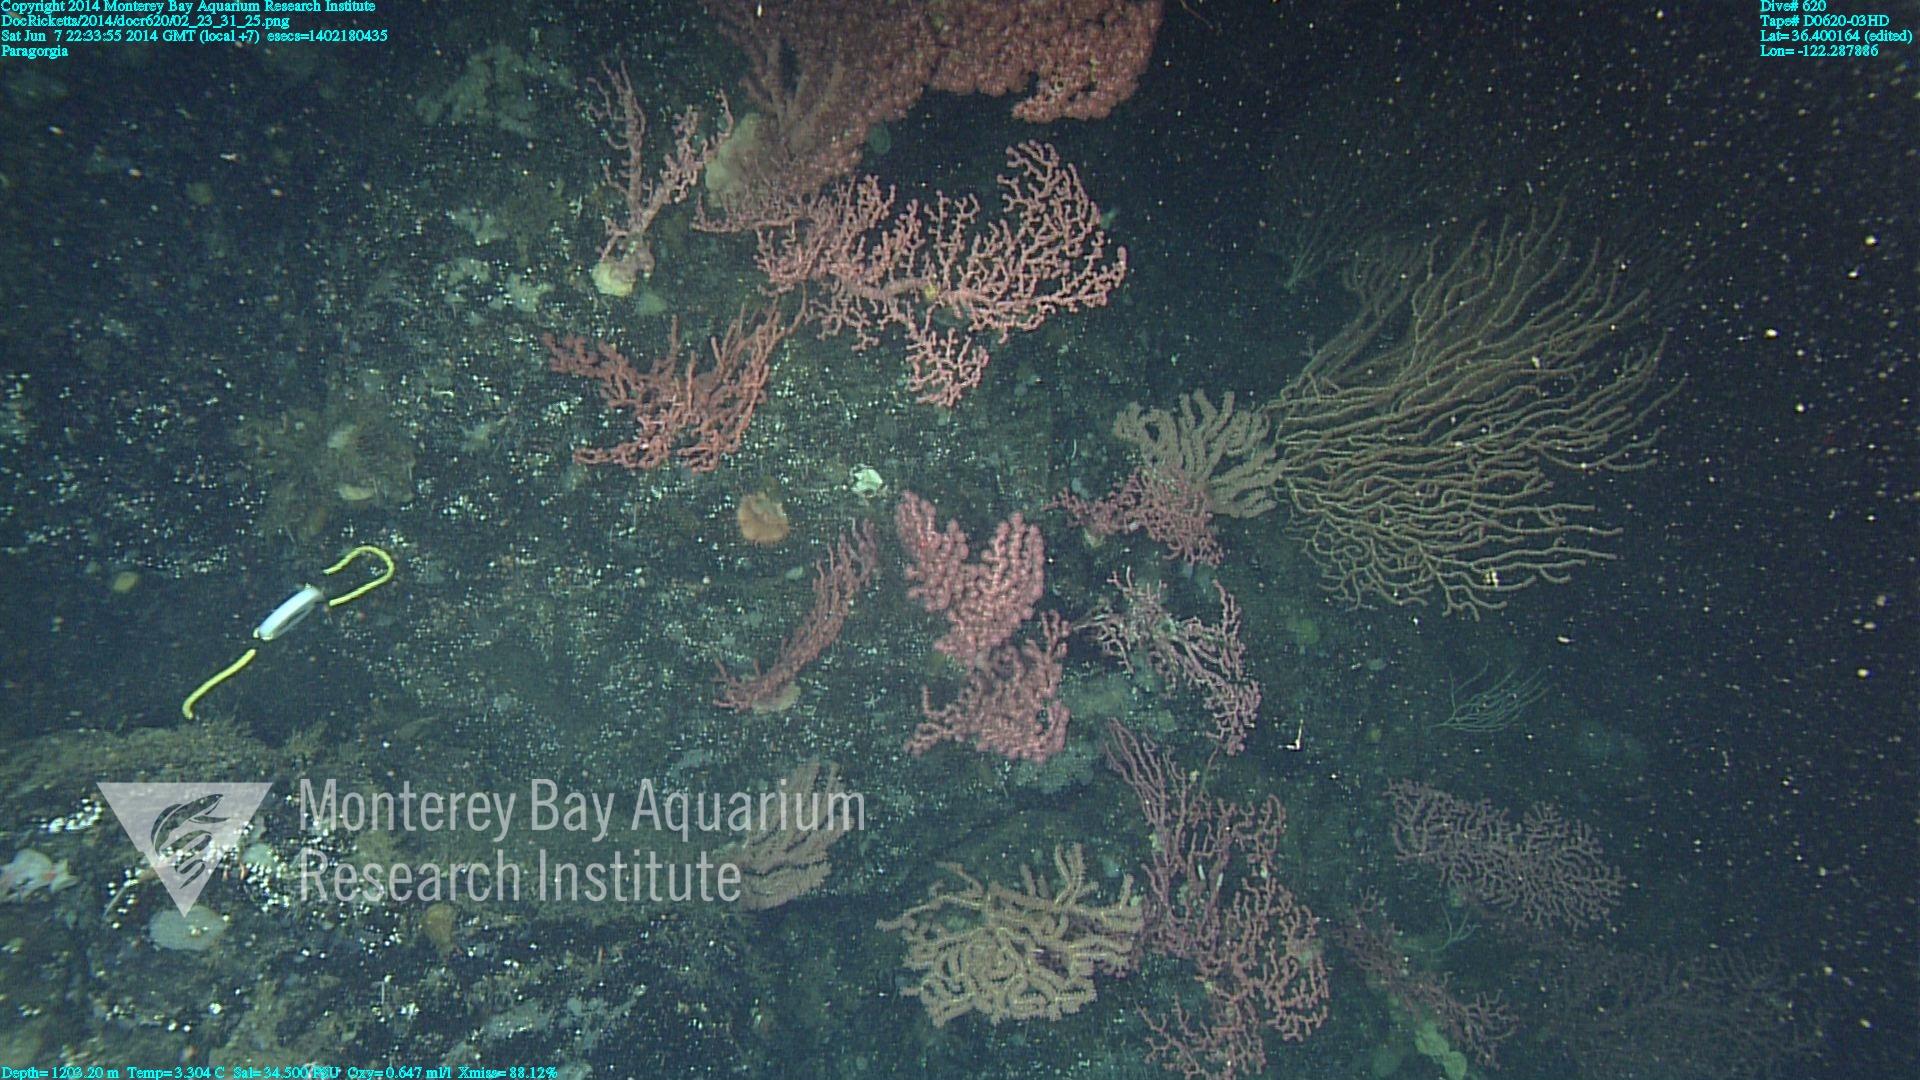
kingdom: Animalia
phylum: Cnidaria
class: Anthozoa
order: Scleralcyonacea
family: Coralliidae
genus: Paragorgia
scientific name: Paragorgia arborea
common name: Bubble gum coral
